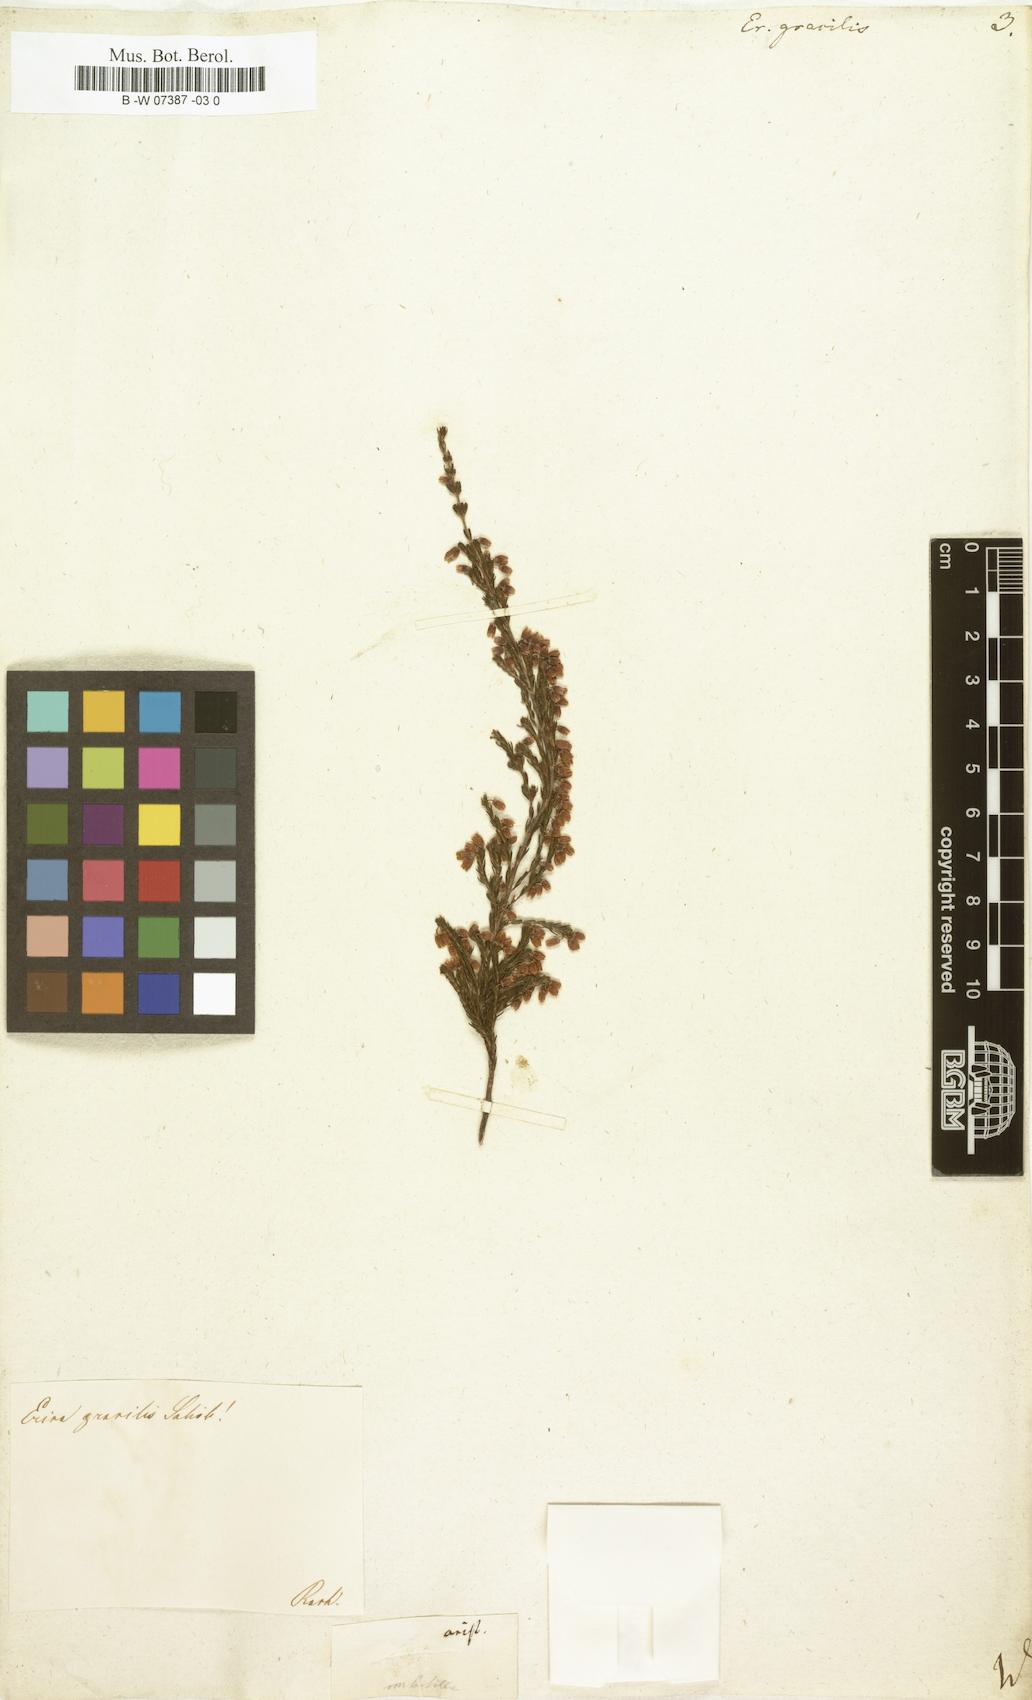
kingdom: Plantae
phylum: Tracheophyta
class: Magnoliopsida
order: Ericales
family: Ericaceae
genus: Erica
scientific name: Erica gracilis
